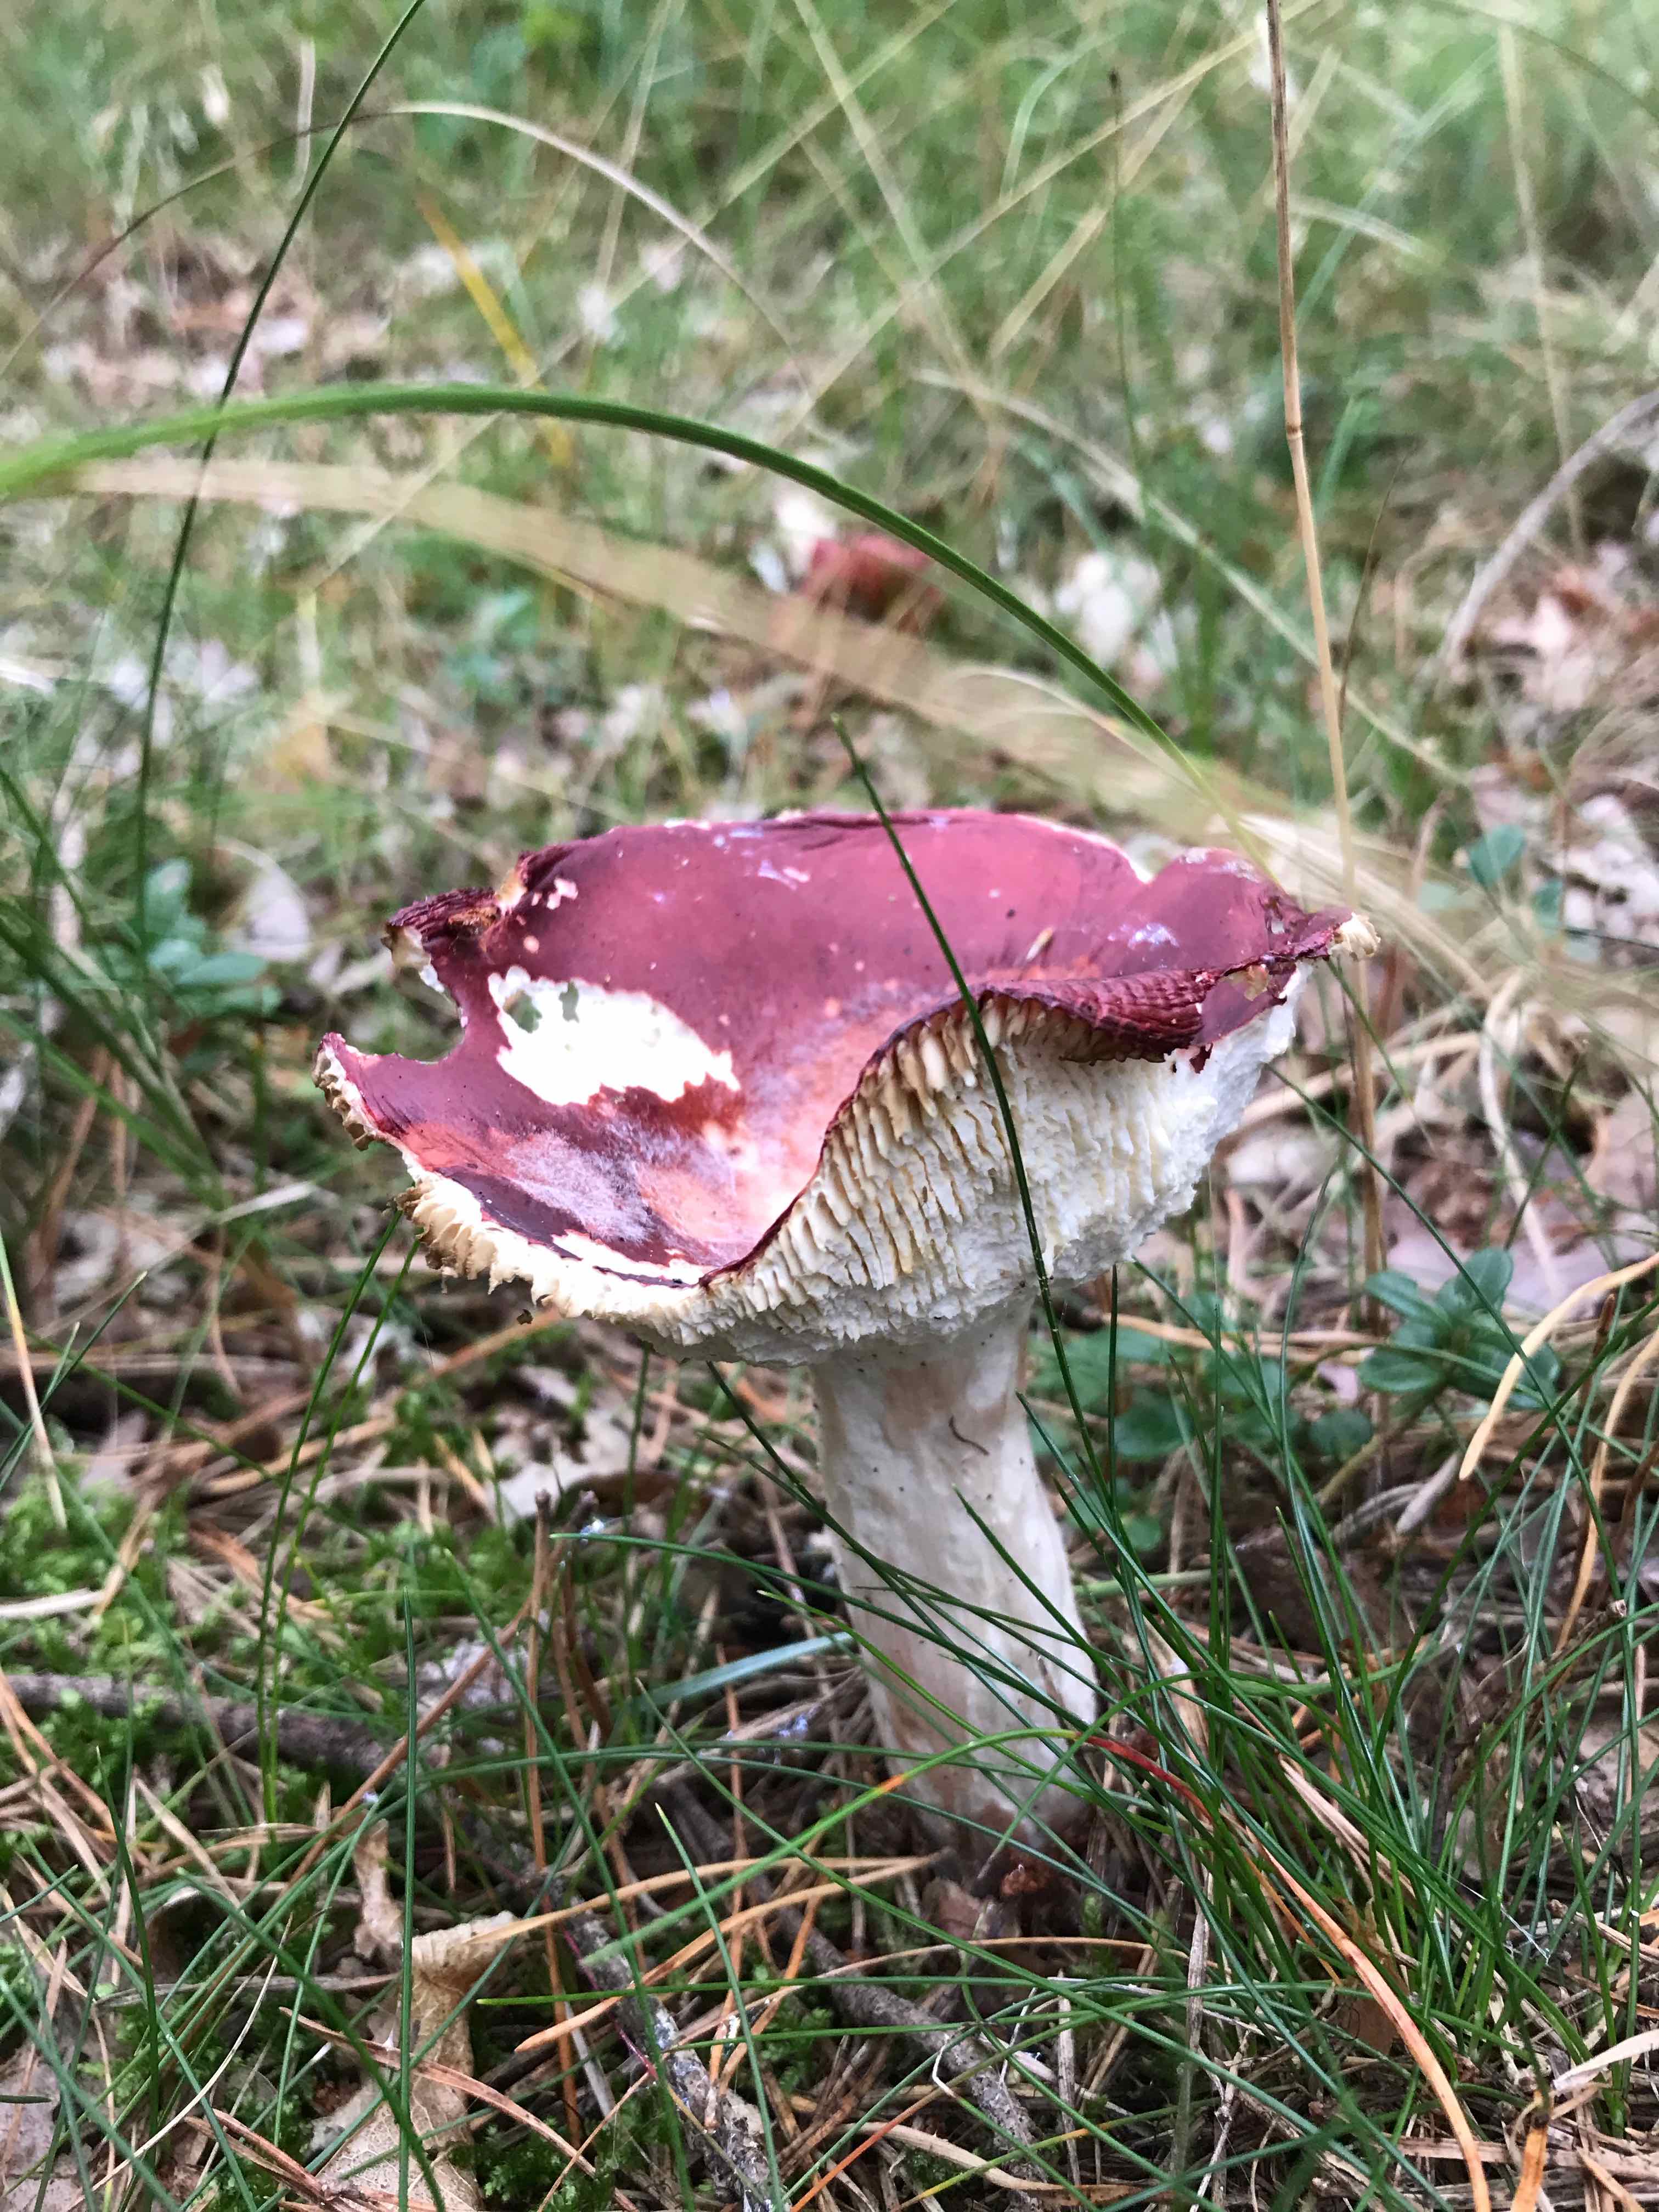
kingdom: Fungi
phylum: Basidiomycota
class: Agaricomycetes
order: Russulales
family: Russulaceae
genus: Russula
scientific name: Russula paludosa
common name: prægtig skørhat
